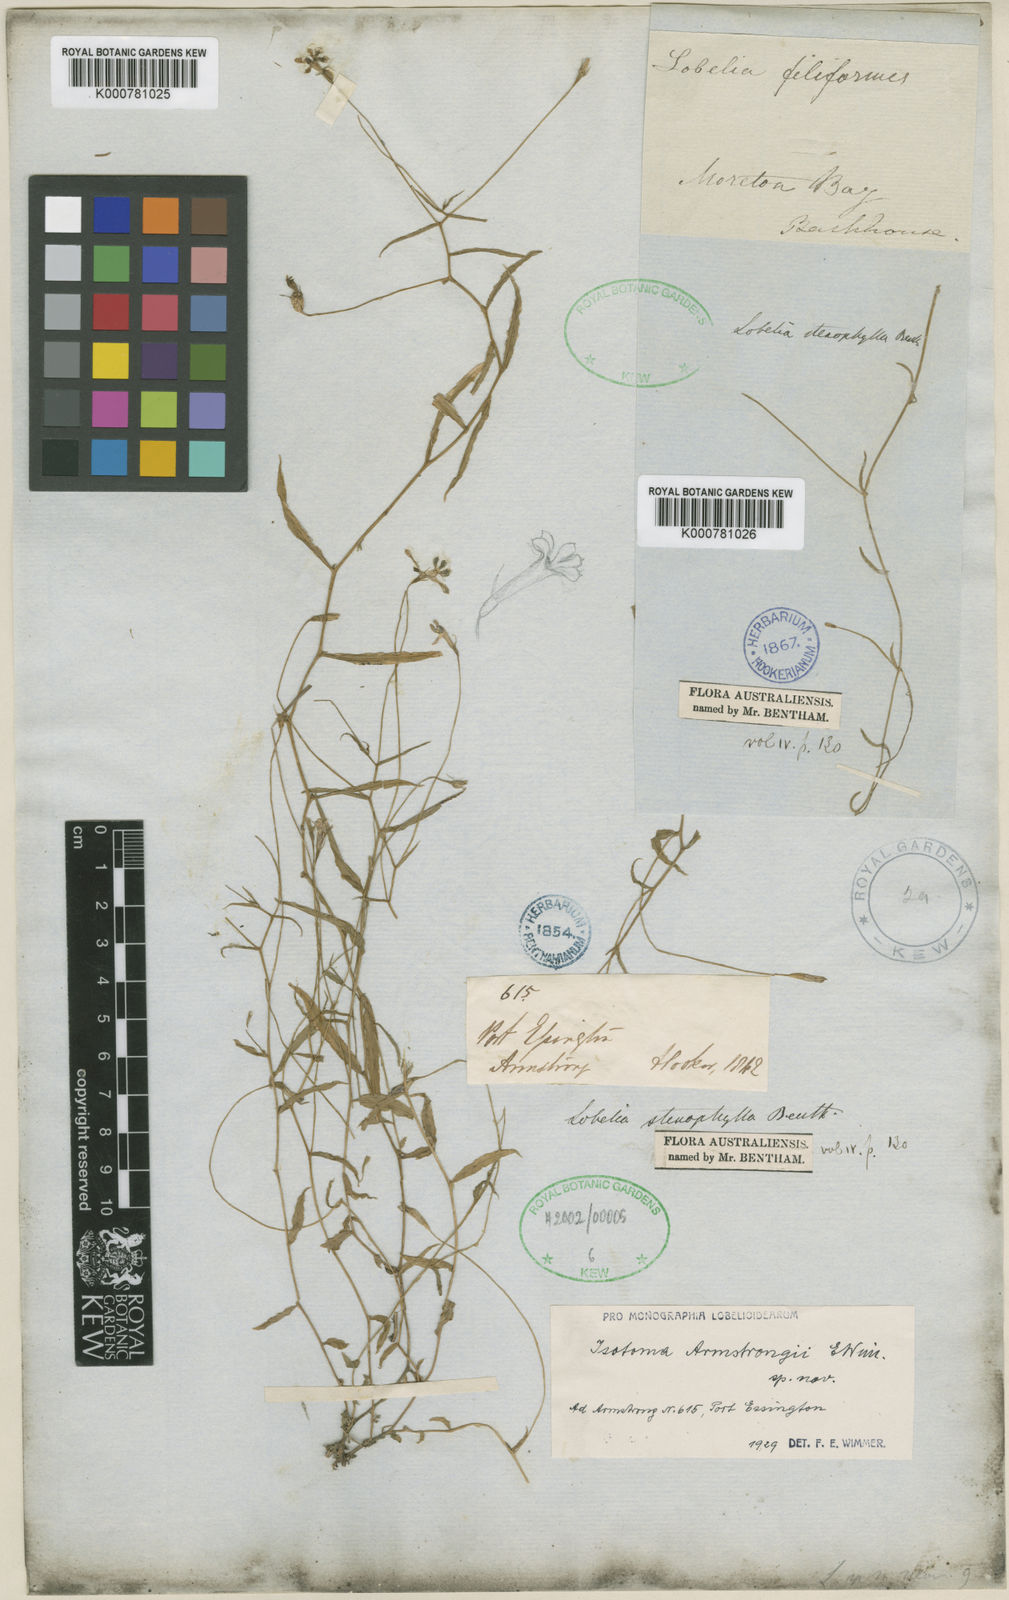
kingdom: Plantae
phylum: Tracheophyta
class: Magnoliopsida
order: Asterales
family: Campanulaceae
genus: Isotoma
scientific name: Isotoma armstrongii
